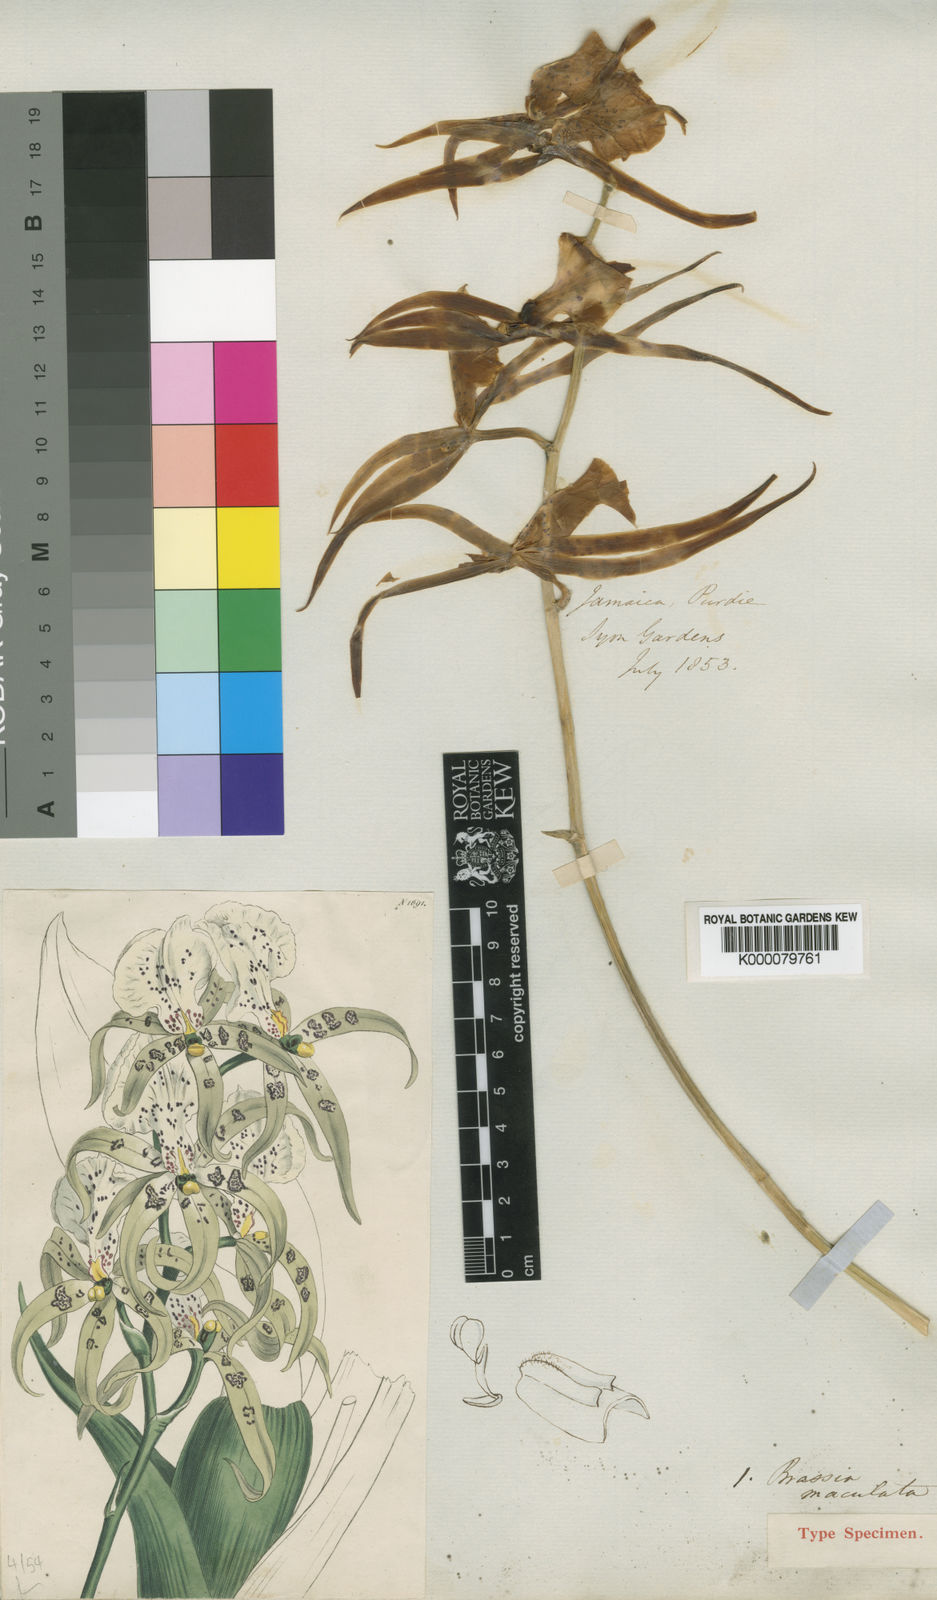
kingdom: Plantae
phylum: Tracheophyta
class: Liliopsida
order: Asparagales
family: Orchidaceae
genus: Brassia
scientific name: Brassia maculata
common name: Spotted spider orchid
